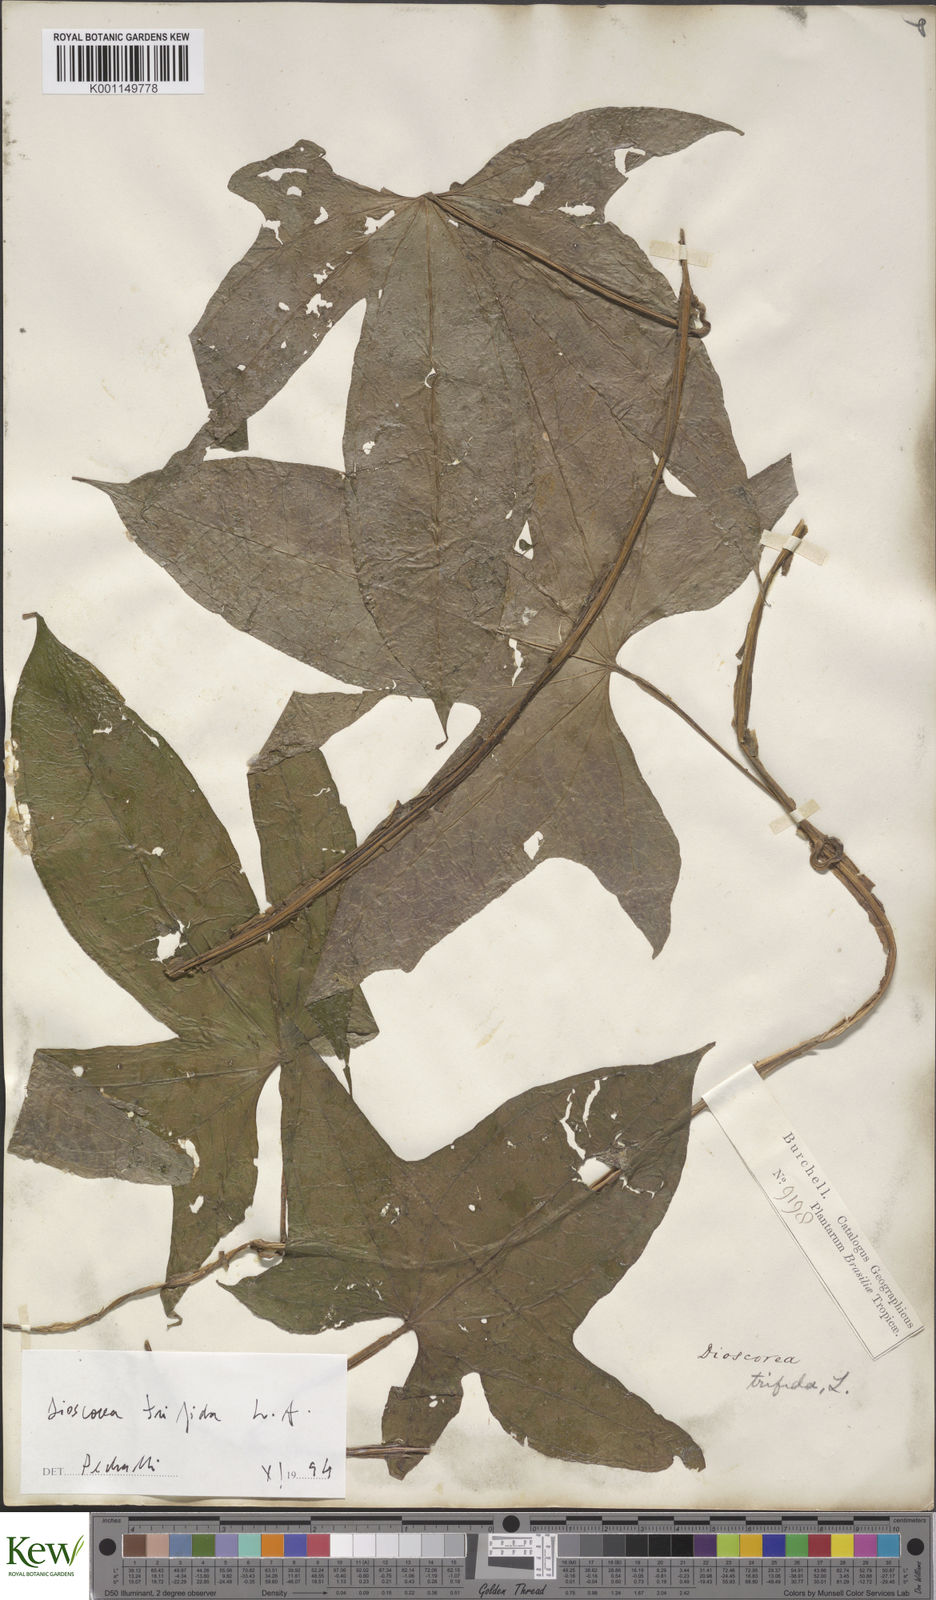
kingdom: Plantae
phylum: Tracheophyta
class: Liliopsida
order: Dioscoreales
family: Dioscoreaceae
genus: Dioscorea
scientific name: Dioscorea trifida
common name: Cush-cush
